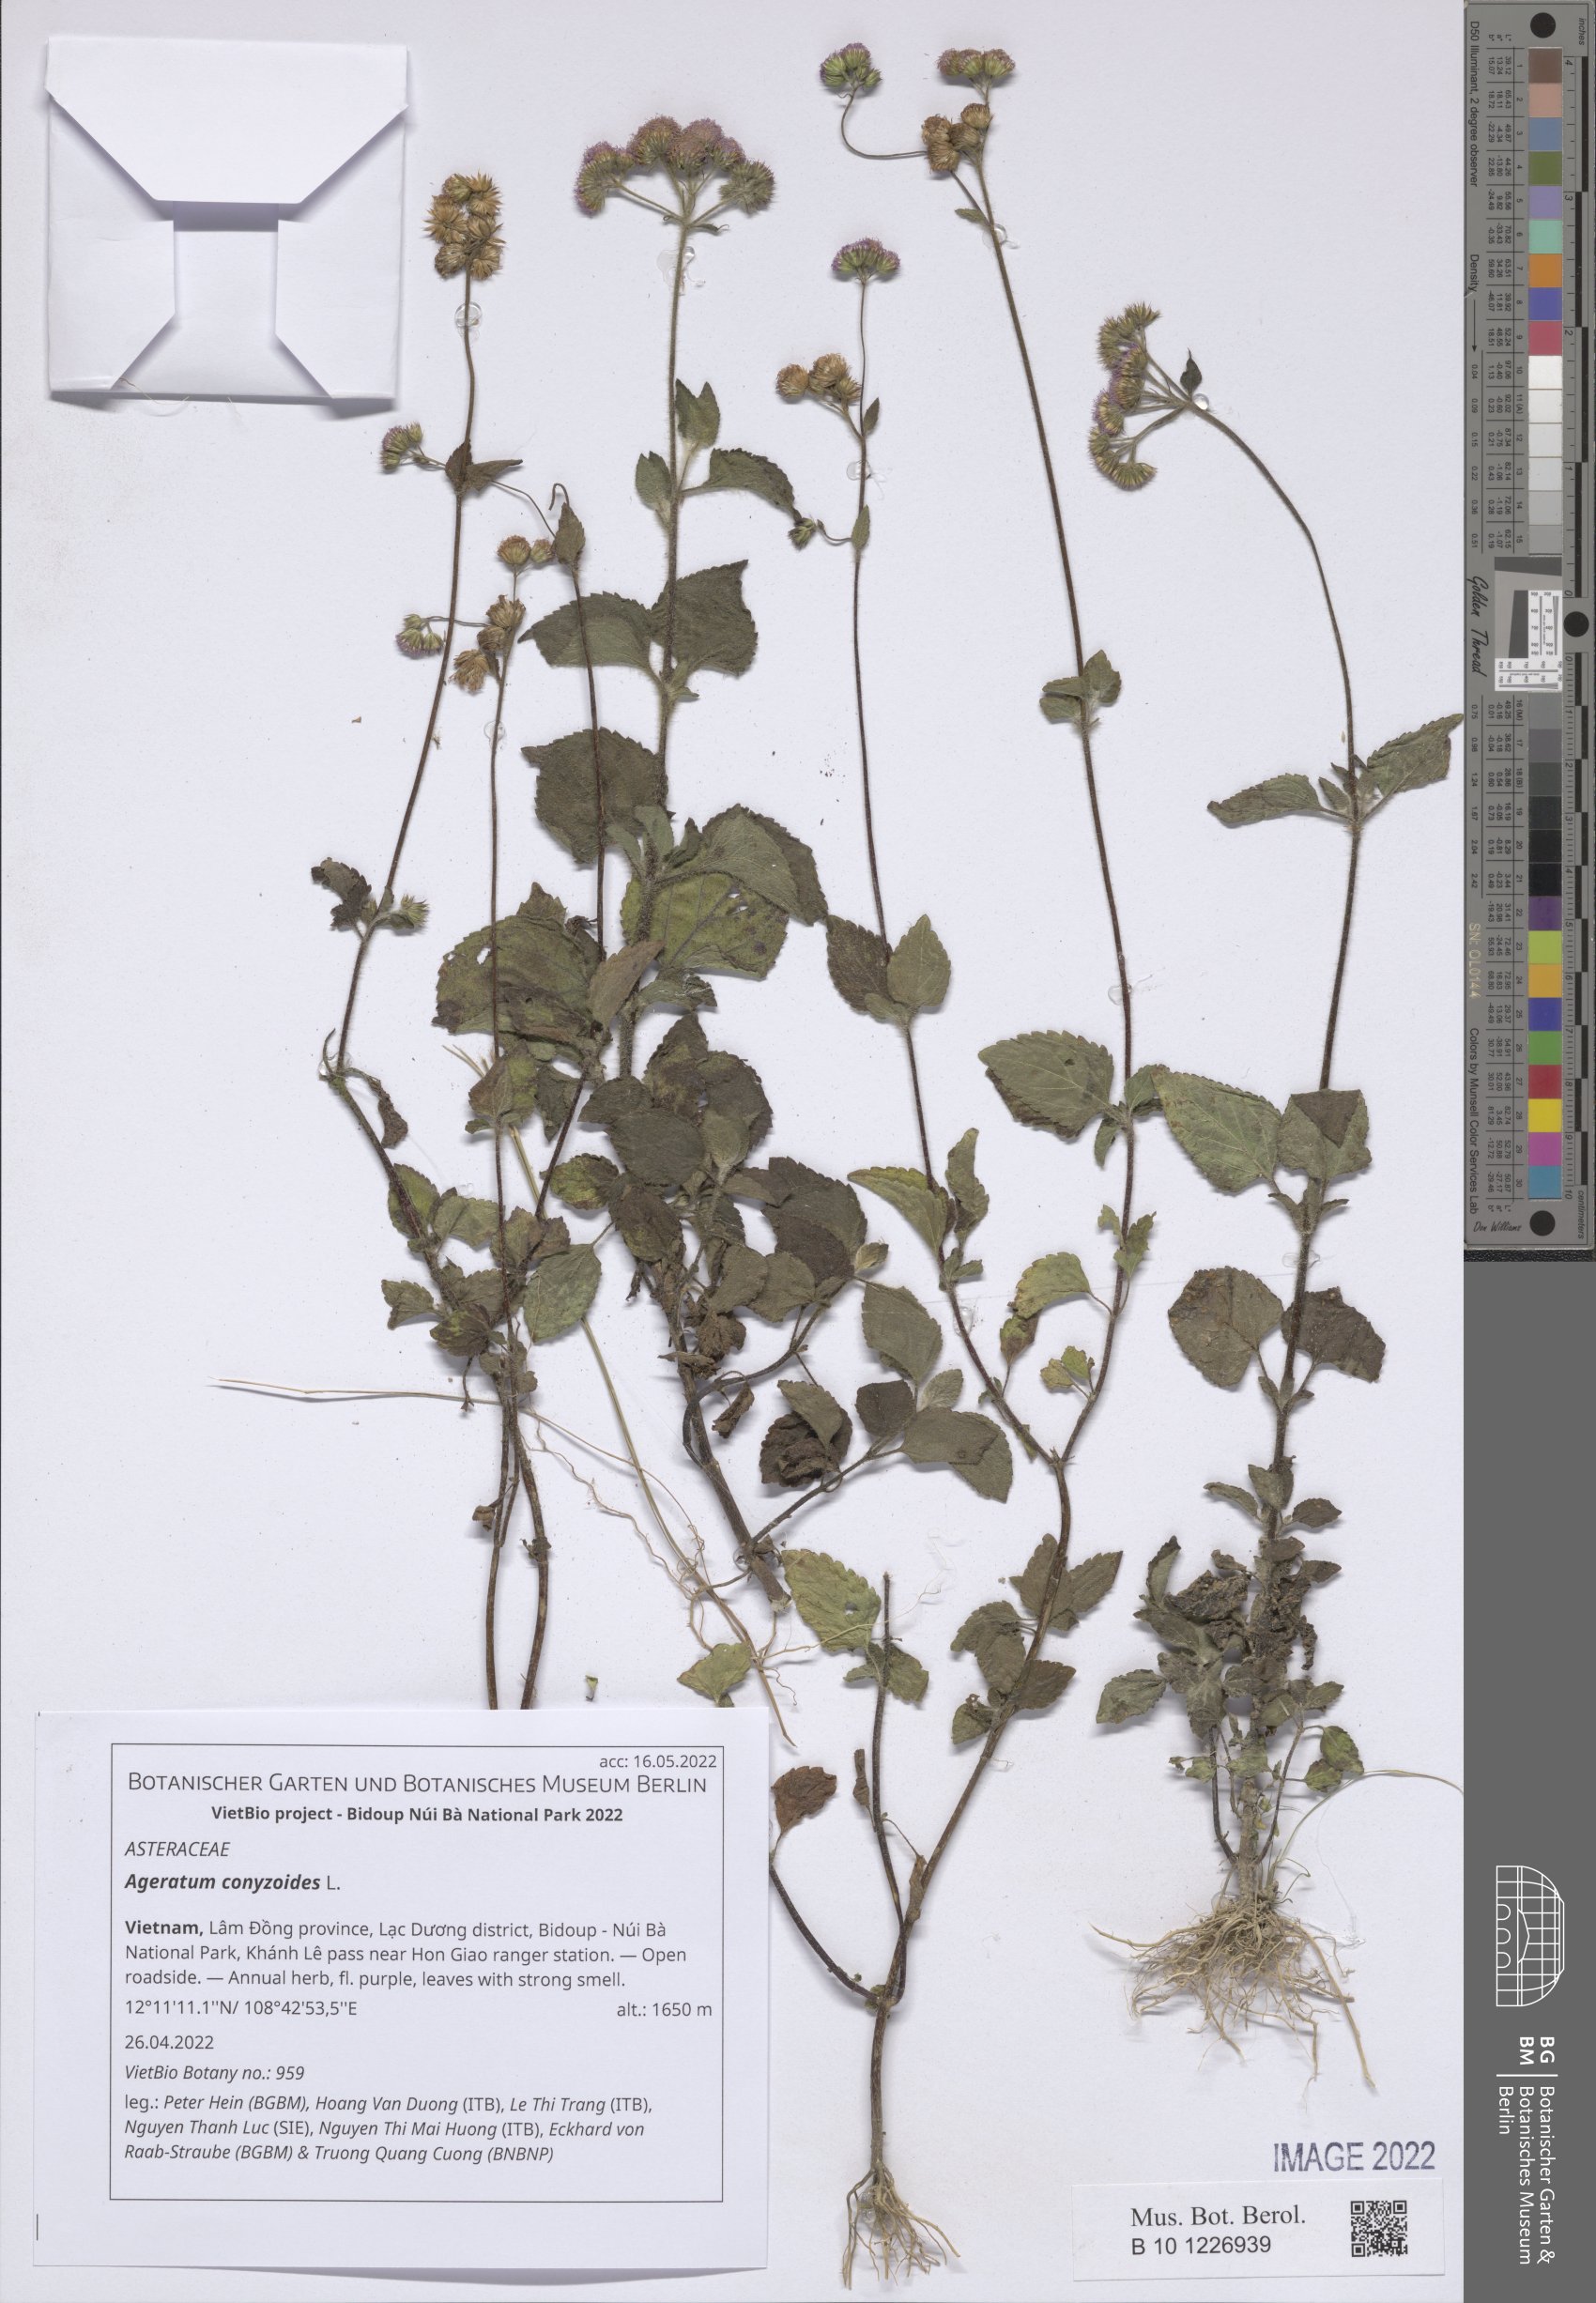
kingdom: Plantae
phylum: Tracheophyta
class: Magnoliopsida
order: Asterales
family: Asteraceae
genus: Ageratum
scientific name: Ageratum conyzoides
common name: Tropical whiteweed
